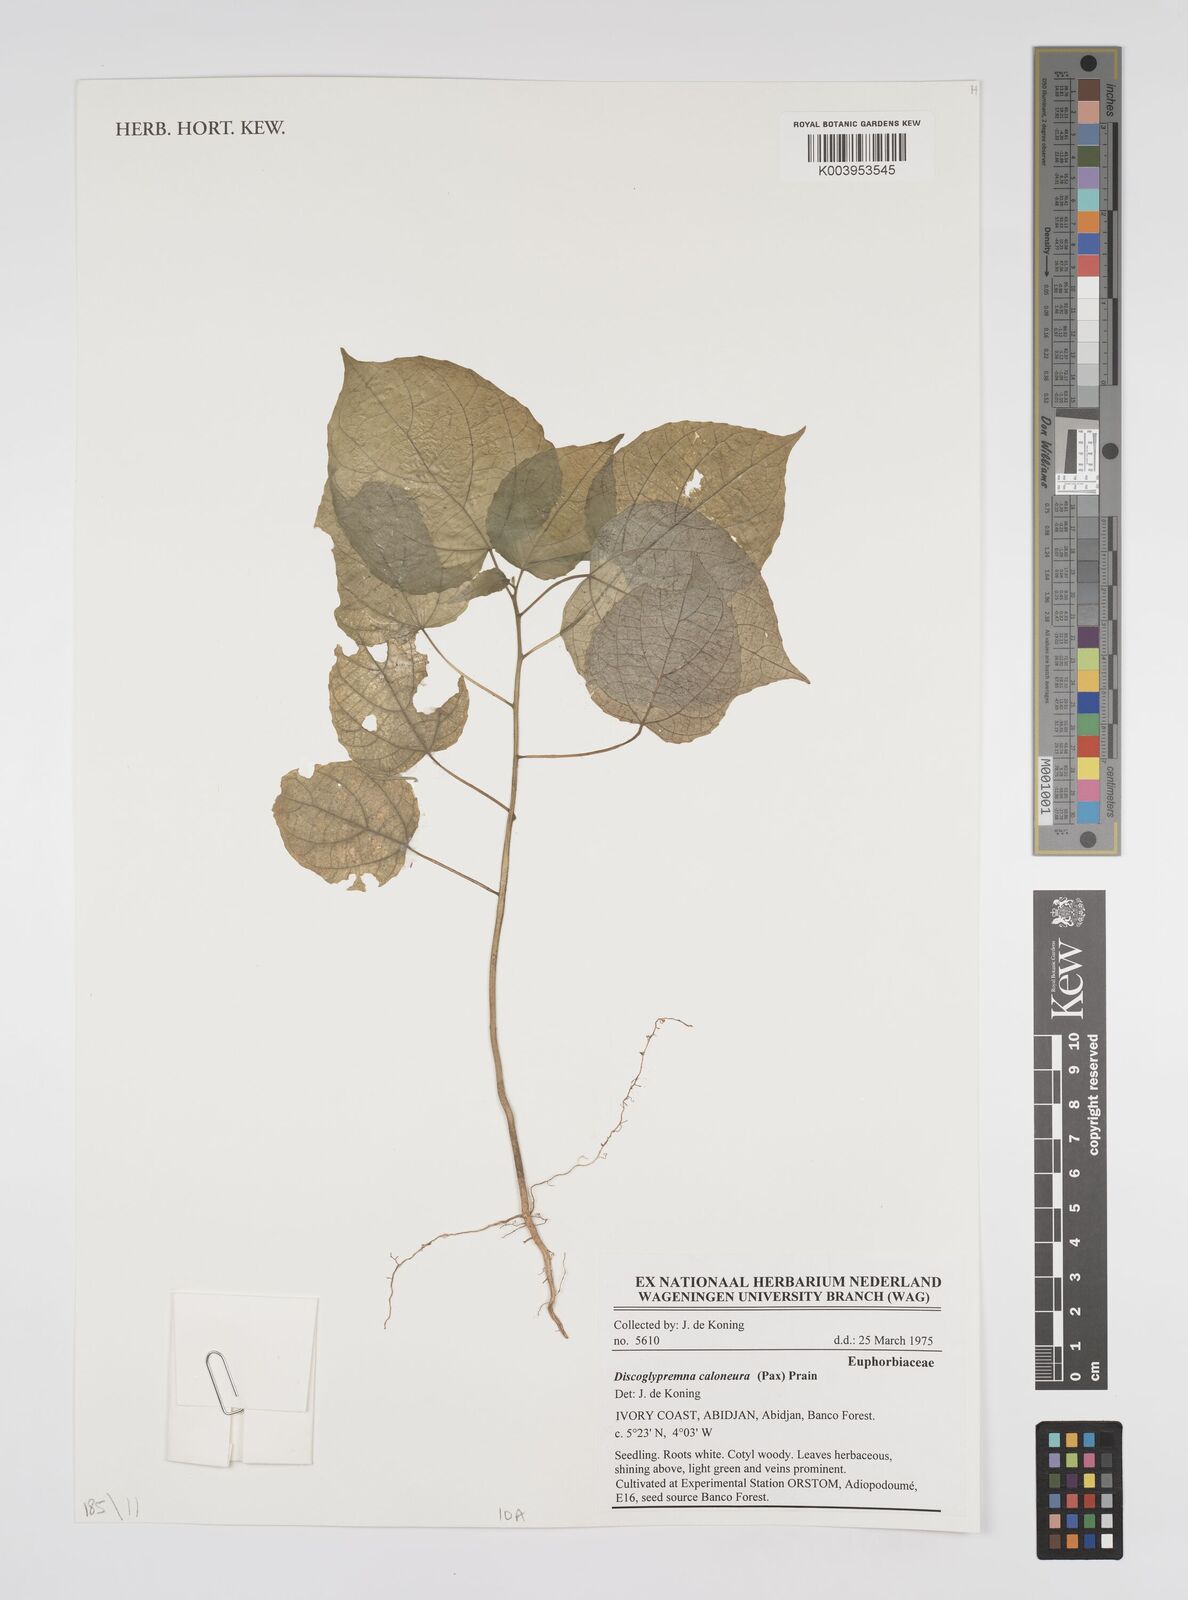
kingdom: Plantae
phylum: Tracheophyta
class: Magnoliopsida
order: Malpighiales
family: Euphorbiaceae
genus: Discoglypremna
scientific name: Discoglypremna caloneura
